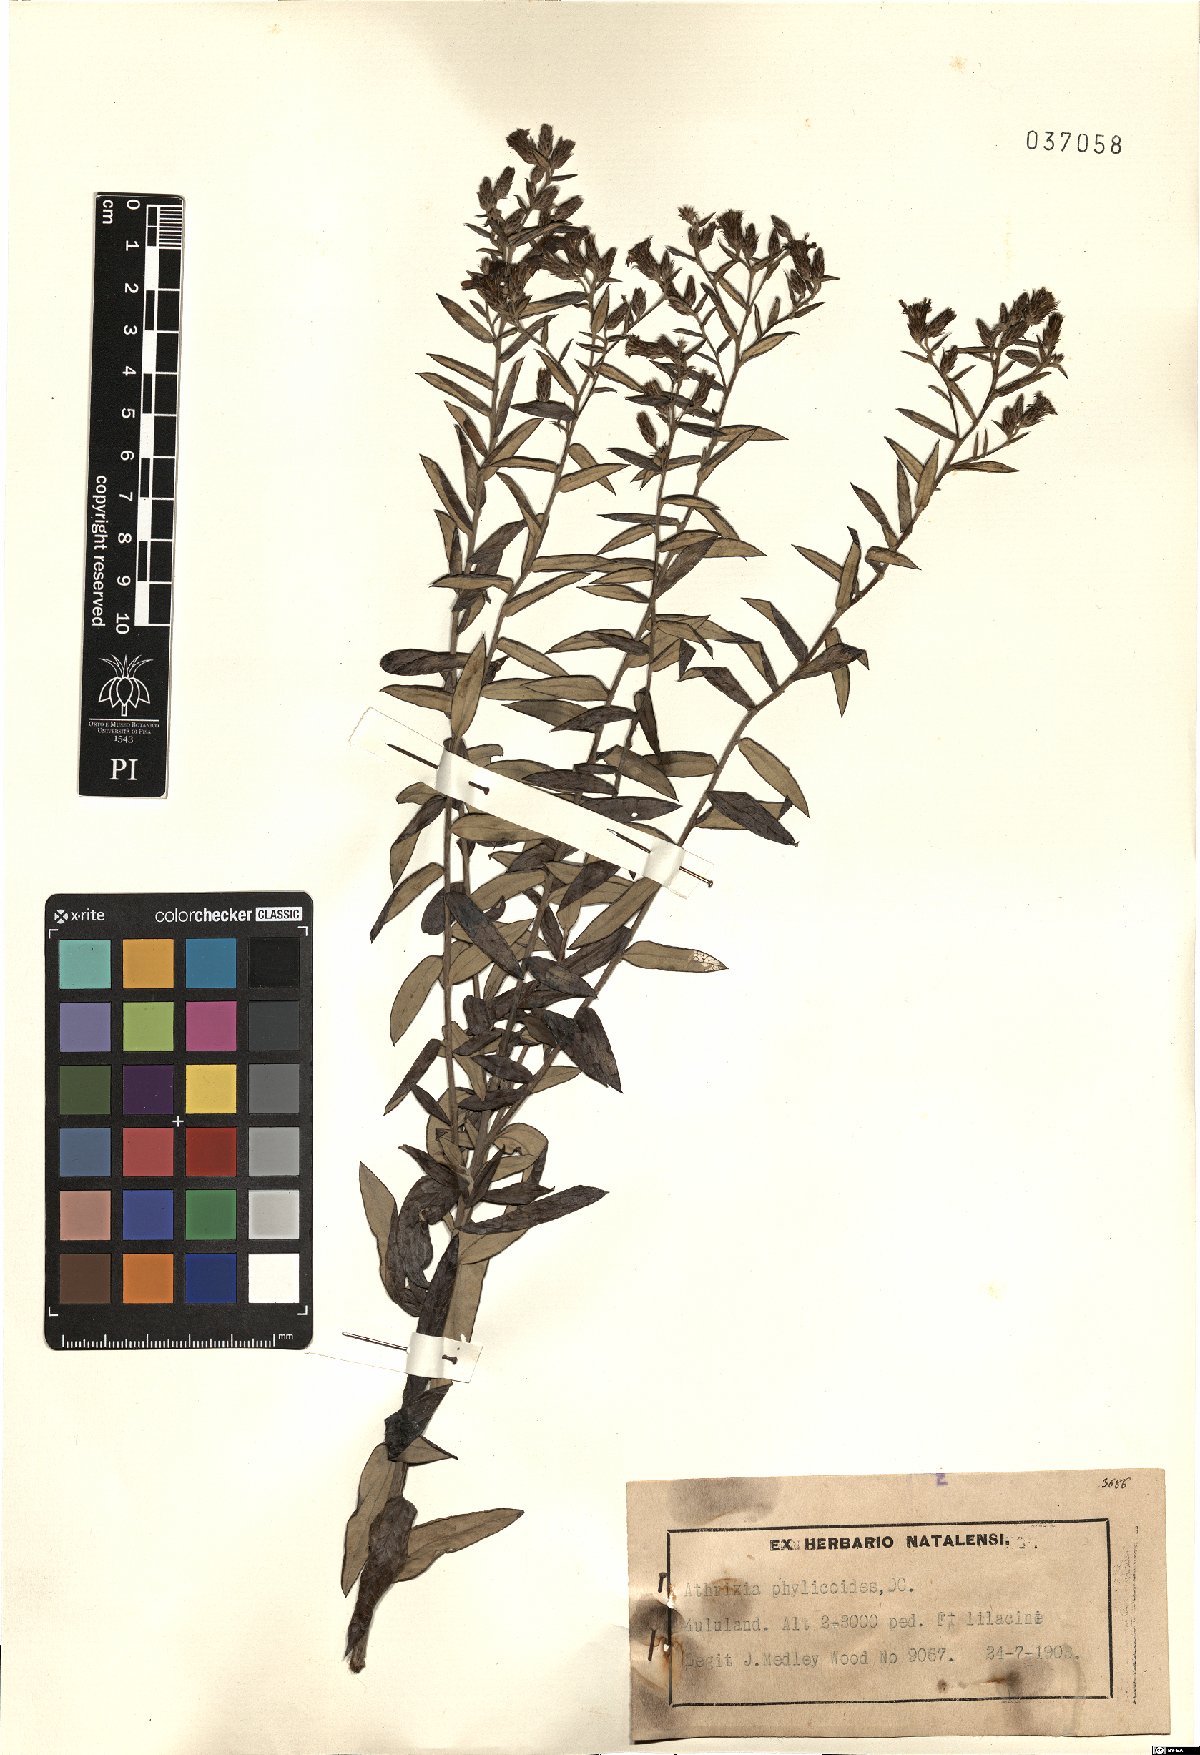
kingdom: Plantae
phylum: Tracheophyta
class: Magnoliopsida
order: Asterales
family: Asteraceae
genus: Athrixia
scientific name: Athrixia phylicoides
